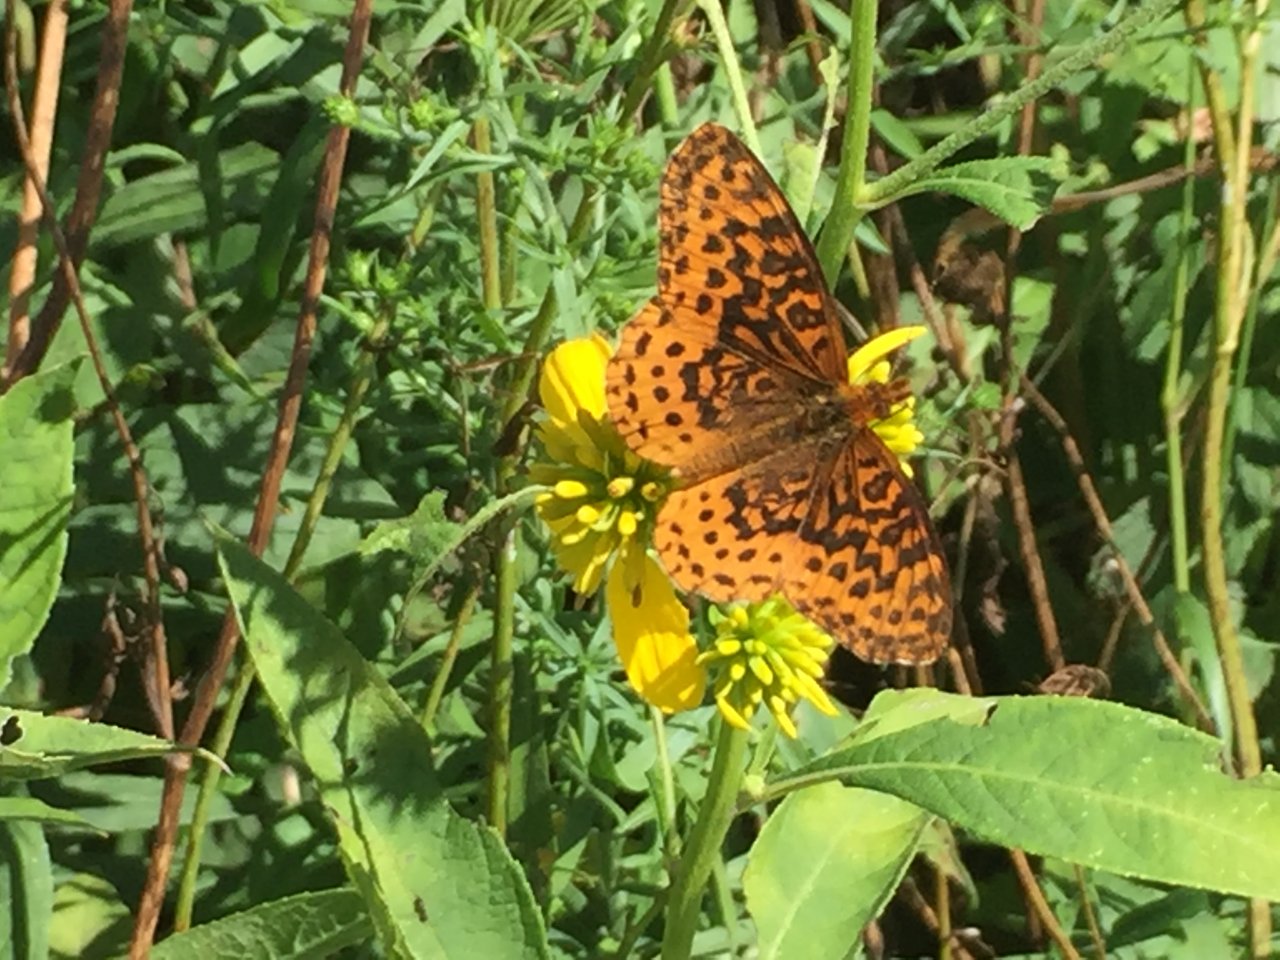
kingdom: Animalia
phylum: Arthropoda
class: Insecta
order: Lepidoptera
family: Nymphalidae
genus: Clossiana
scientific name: Clossiana toddi
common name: Meadow Fritillary
